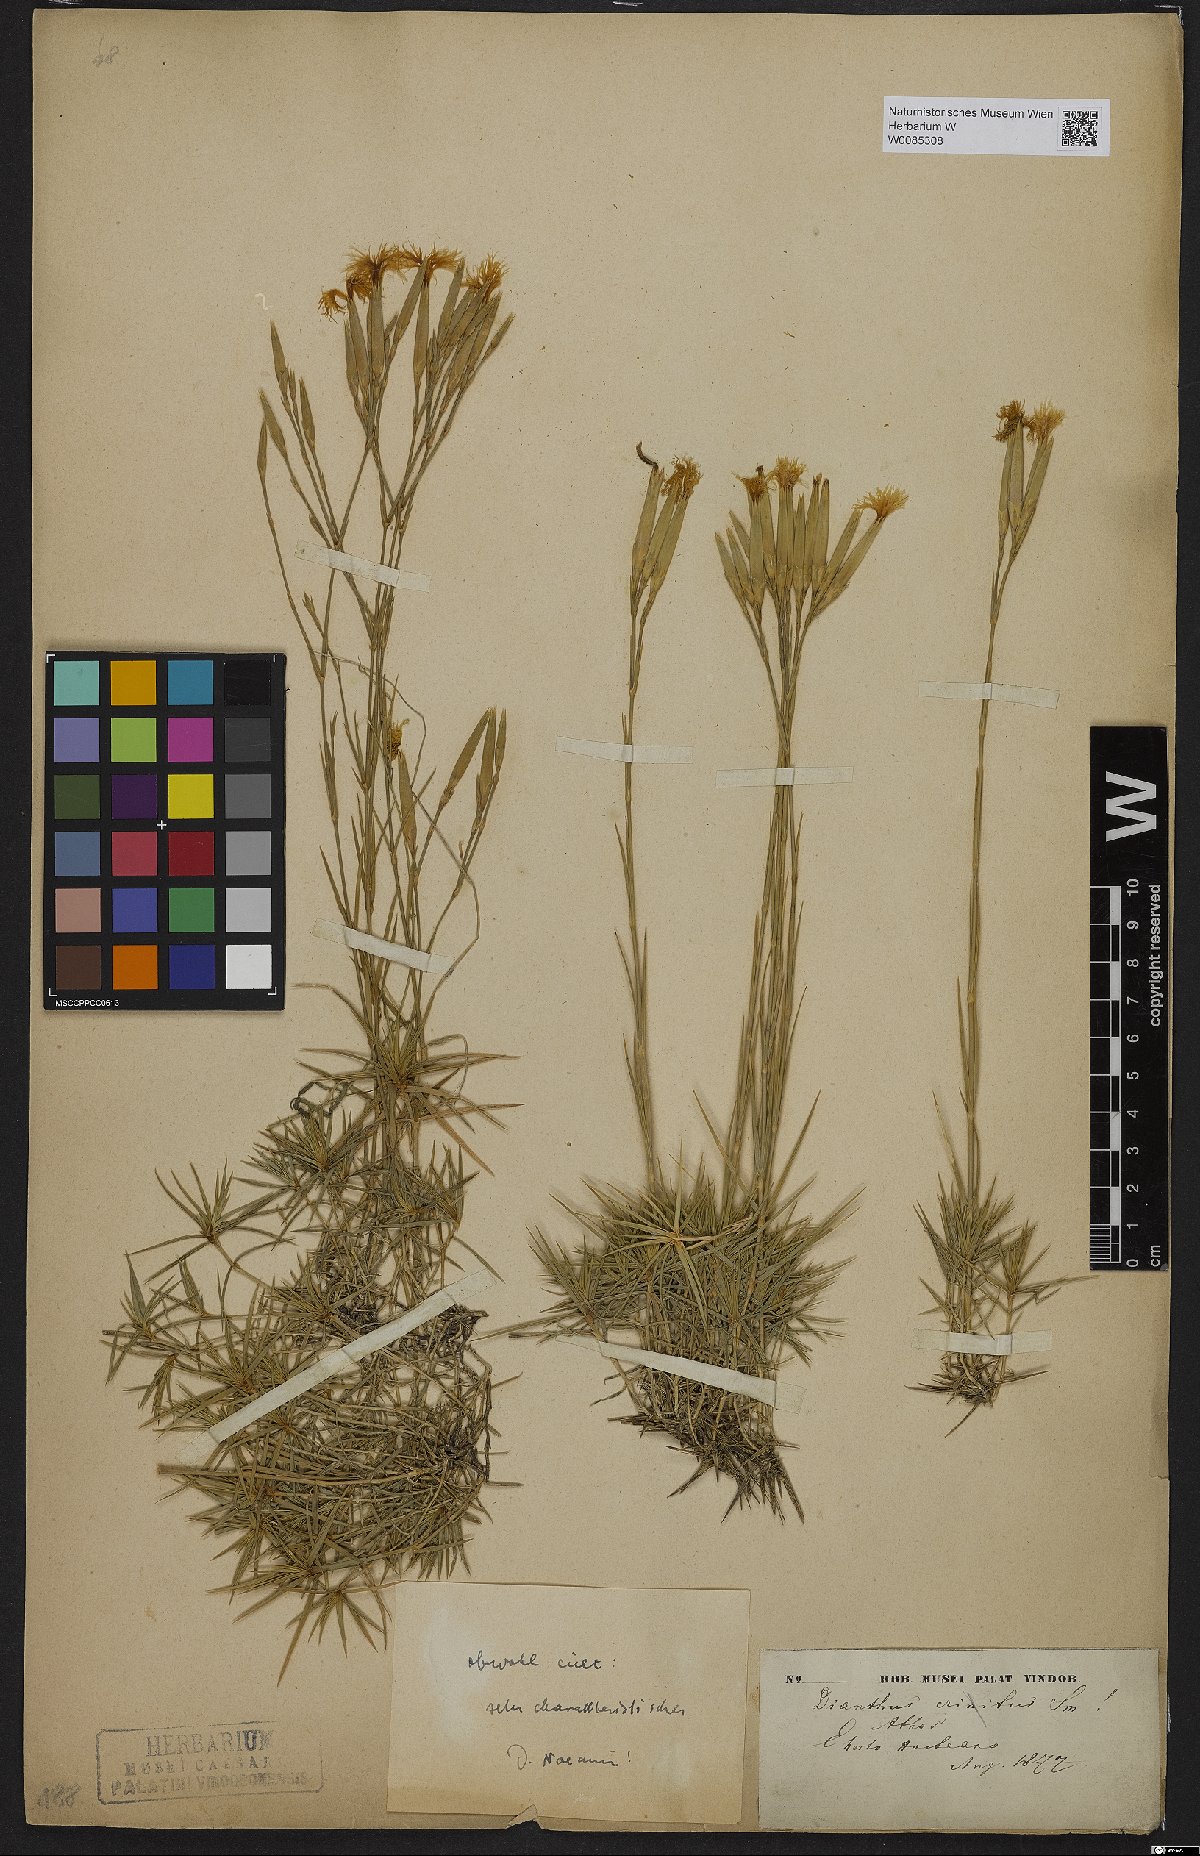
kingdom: Plantae
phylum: Tracheophyta
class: Magnoliopsida
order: Caryophyllales
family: Caryophyllaceae
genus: Dianthus
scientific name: Dianthus petraeus
